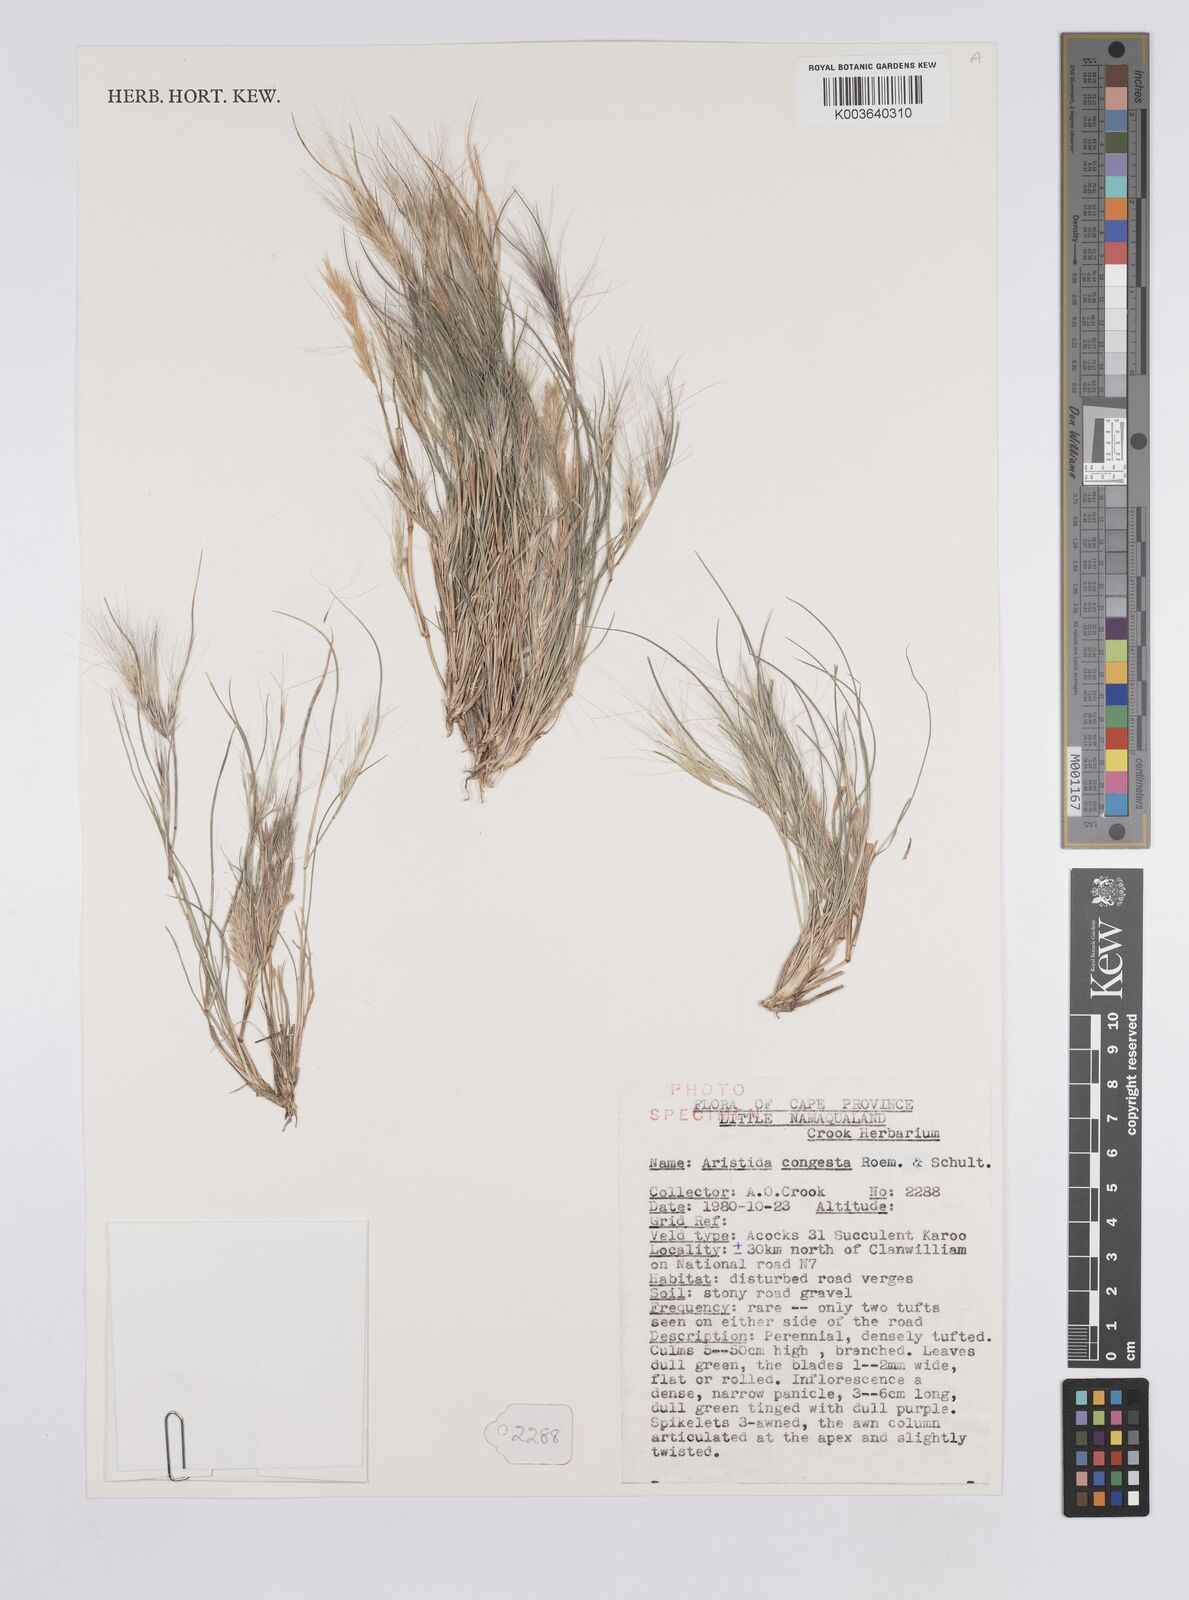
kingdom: Plantae
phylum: Tracheophyta
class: Liliopsida
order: Poales
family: Poaceae
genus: Aristida
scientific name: Aristida congesta
